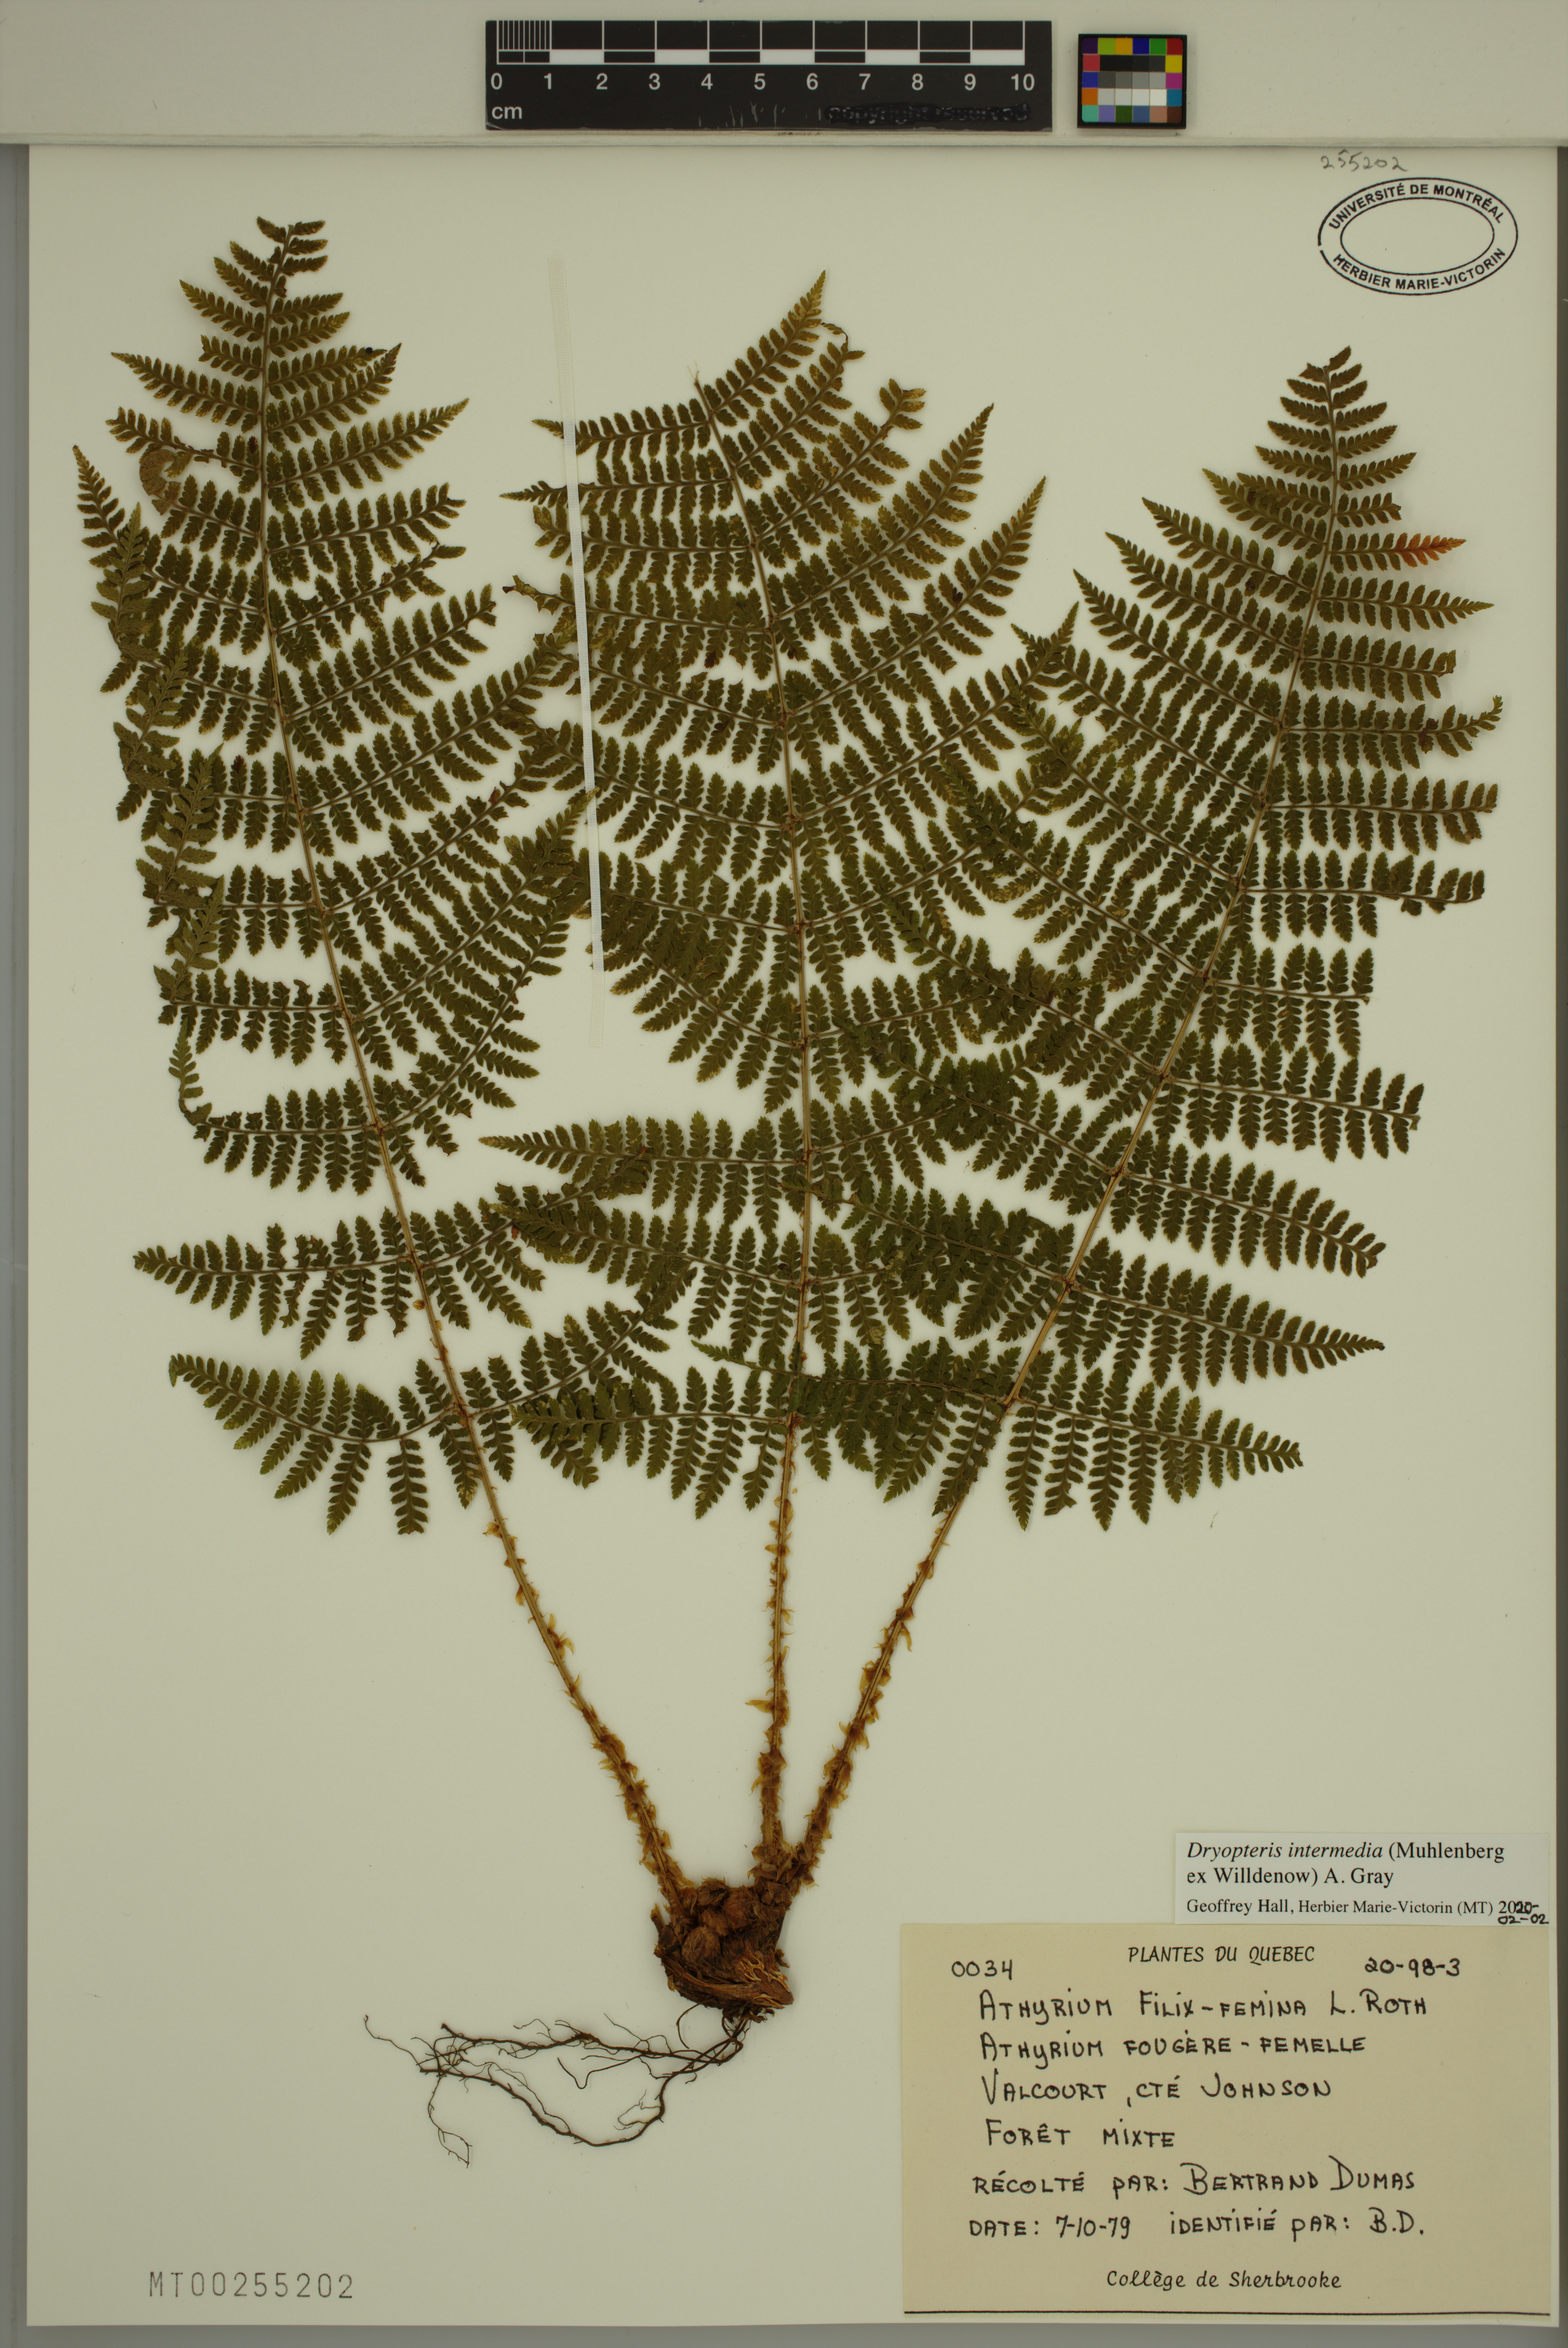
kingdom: Plantae
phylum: Tracheophyta
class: Polypodiopsida
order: Polypodiales
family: Dryopteridaceae
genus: Dryopteris
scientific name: Dryopteris intermedia
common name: Evergreen wood fern
